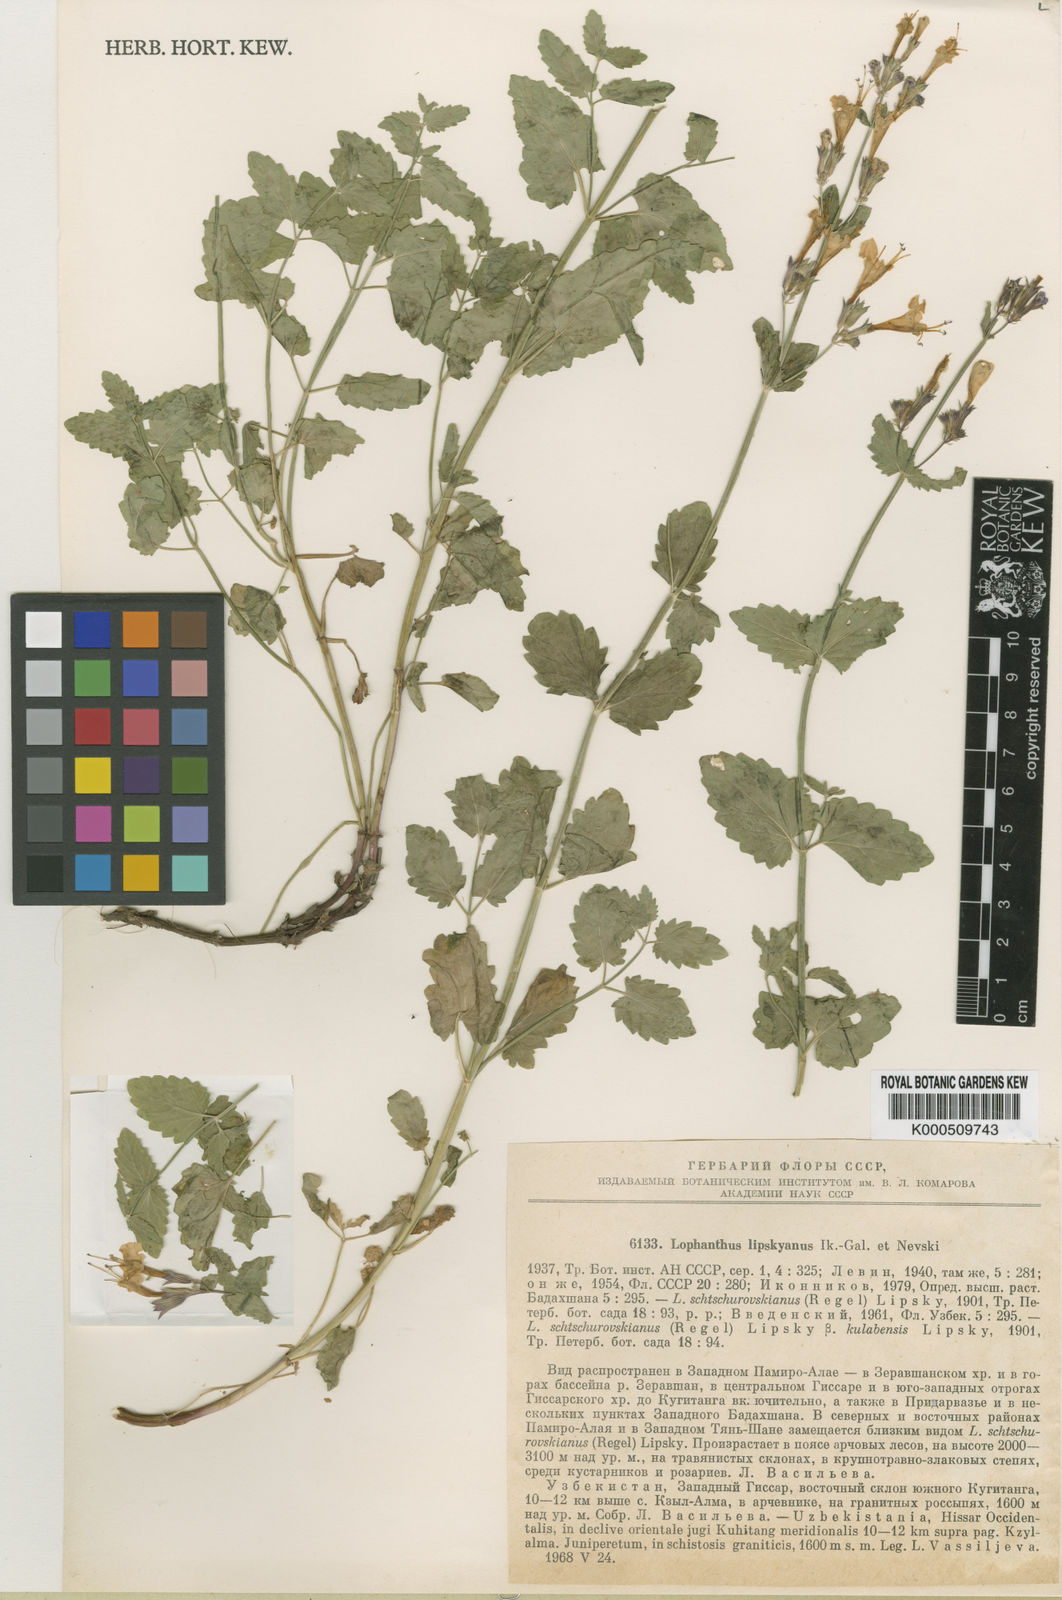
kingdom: Plantae
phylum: Tracheophyta
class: Magnoliopsida
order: Lamiales
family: Lamiaceae
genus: Nepeta
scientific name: Nepeta ouroumitanensis
